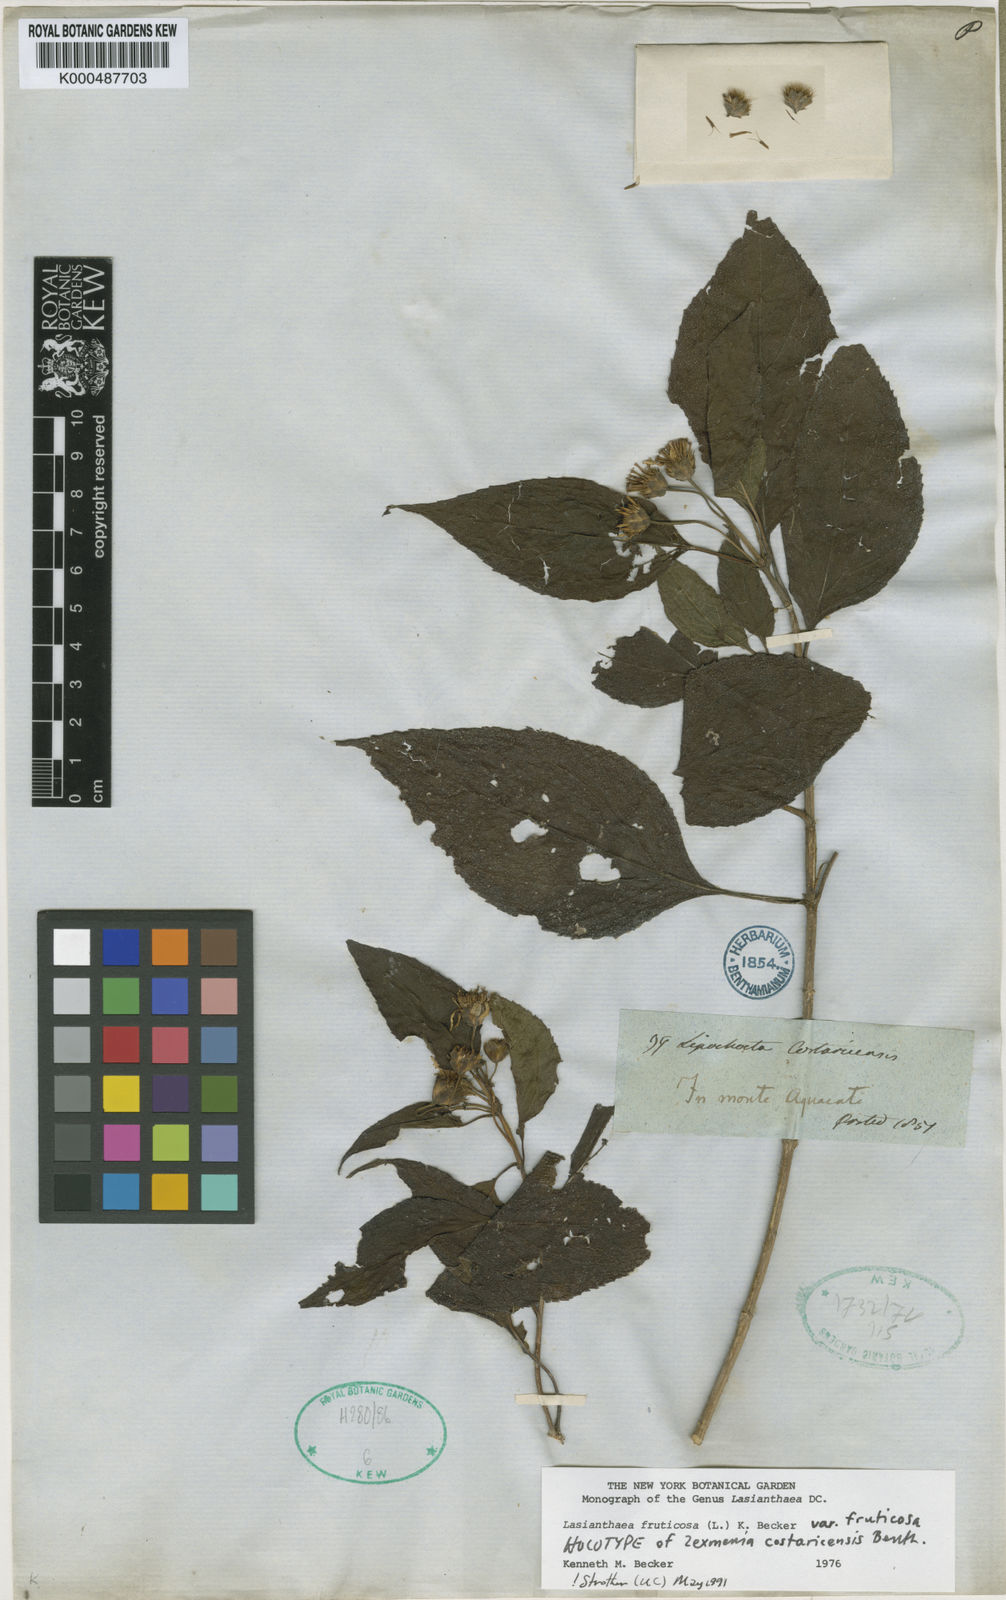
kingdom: Plantae
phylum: Tracheophyta
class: Magnoliopsida
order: Asterales
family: Asteraceae
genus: Lasianthaea
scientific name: Lasianthaea fruticosa
